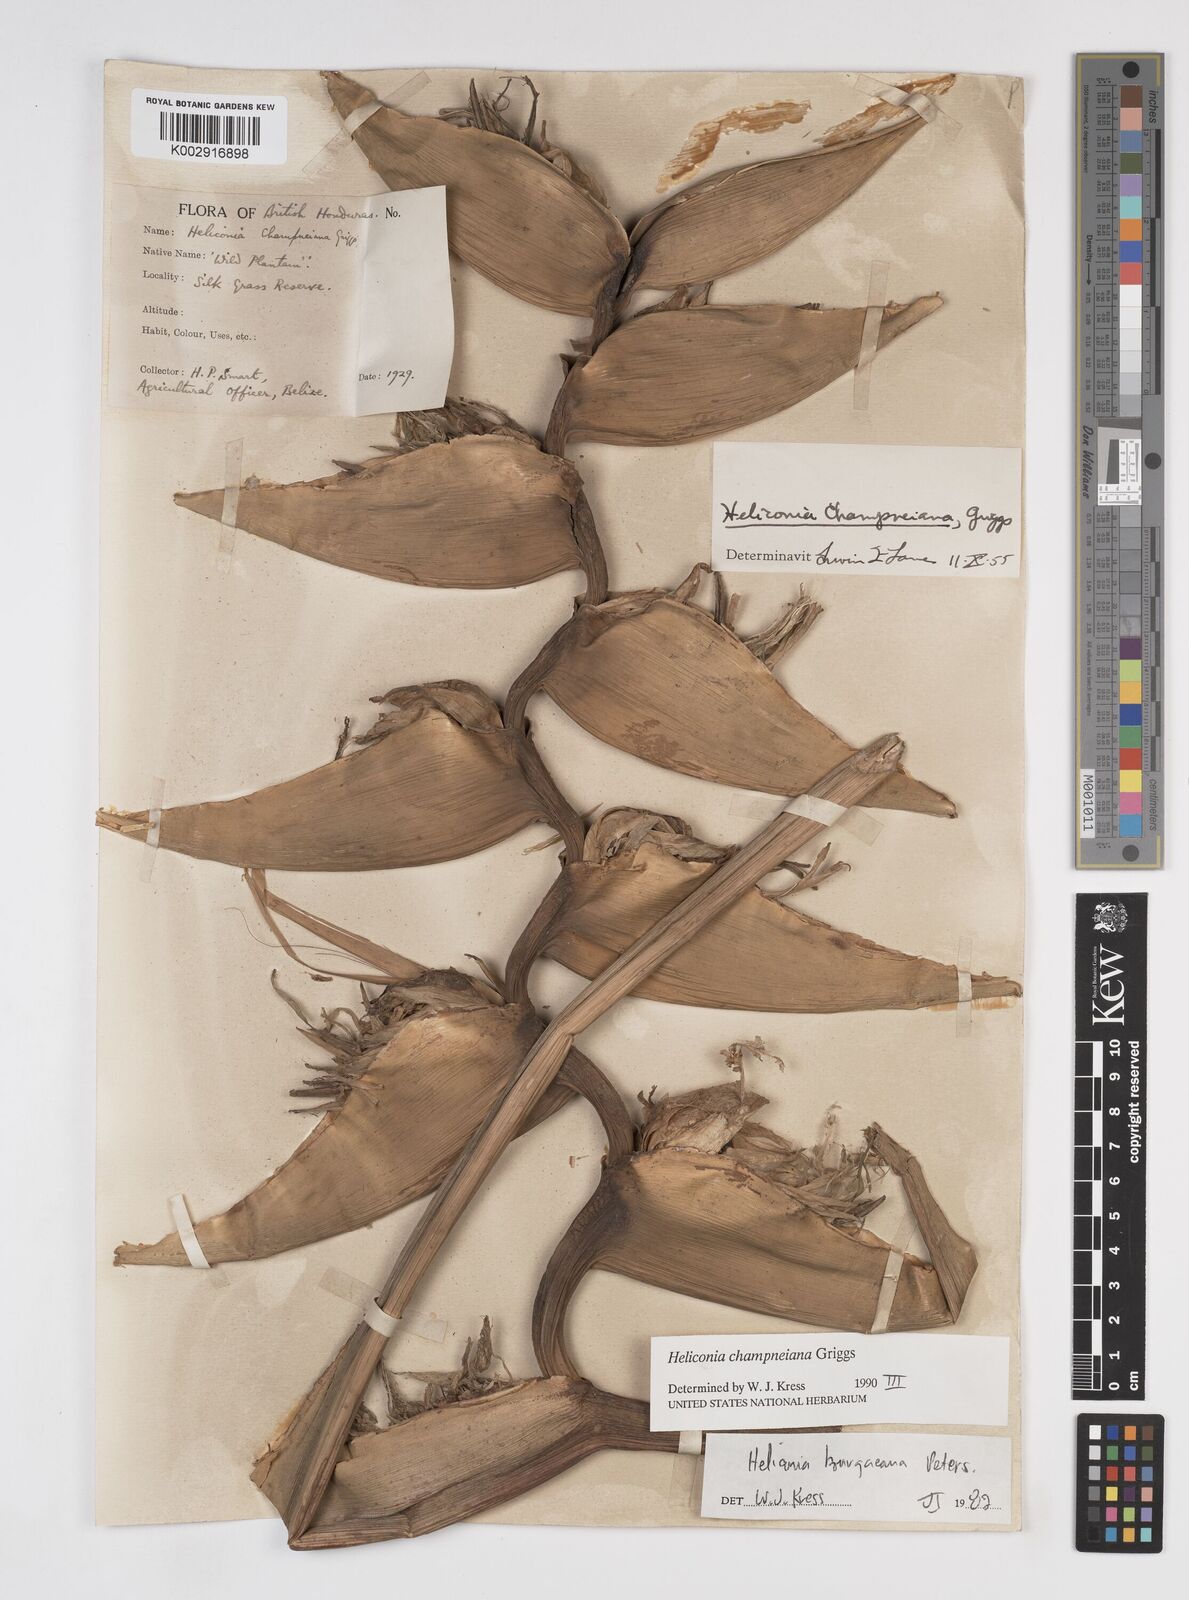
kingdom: Plantae
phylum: Tracheophyta
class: Liliopsida
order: Zingiberales
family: Heliconiaceae
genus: Heliconia
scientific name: Heliconia bourgaeana
